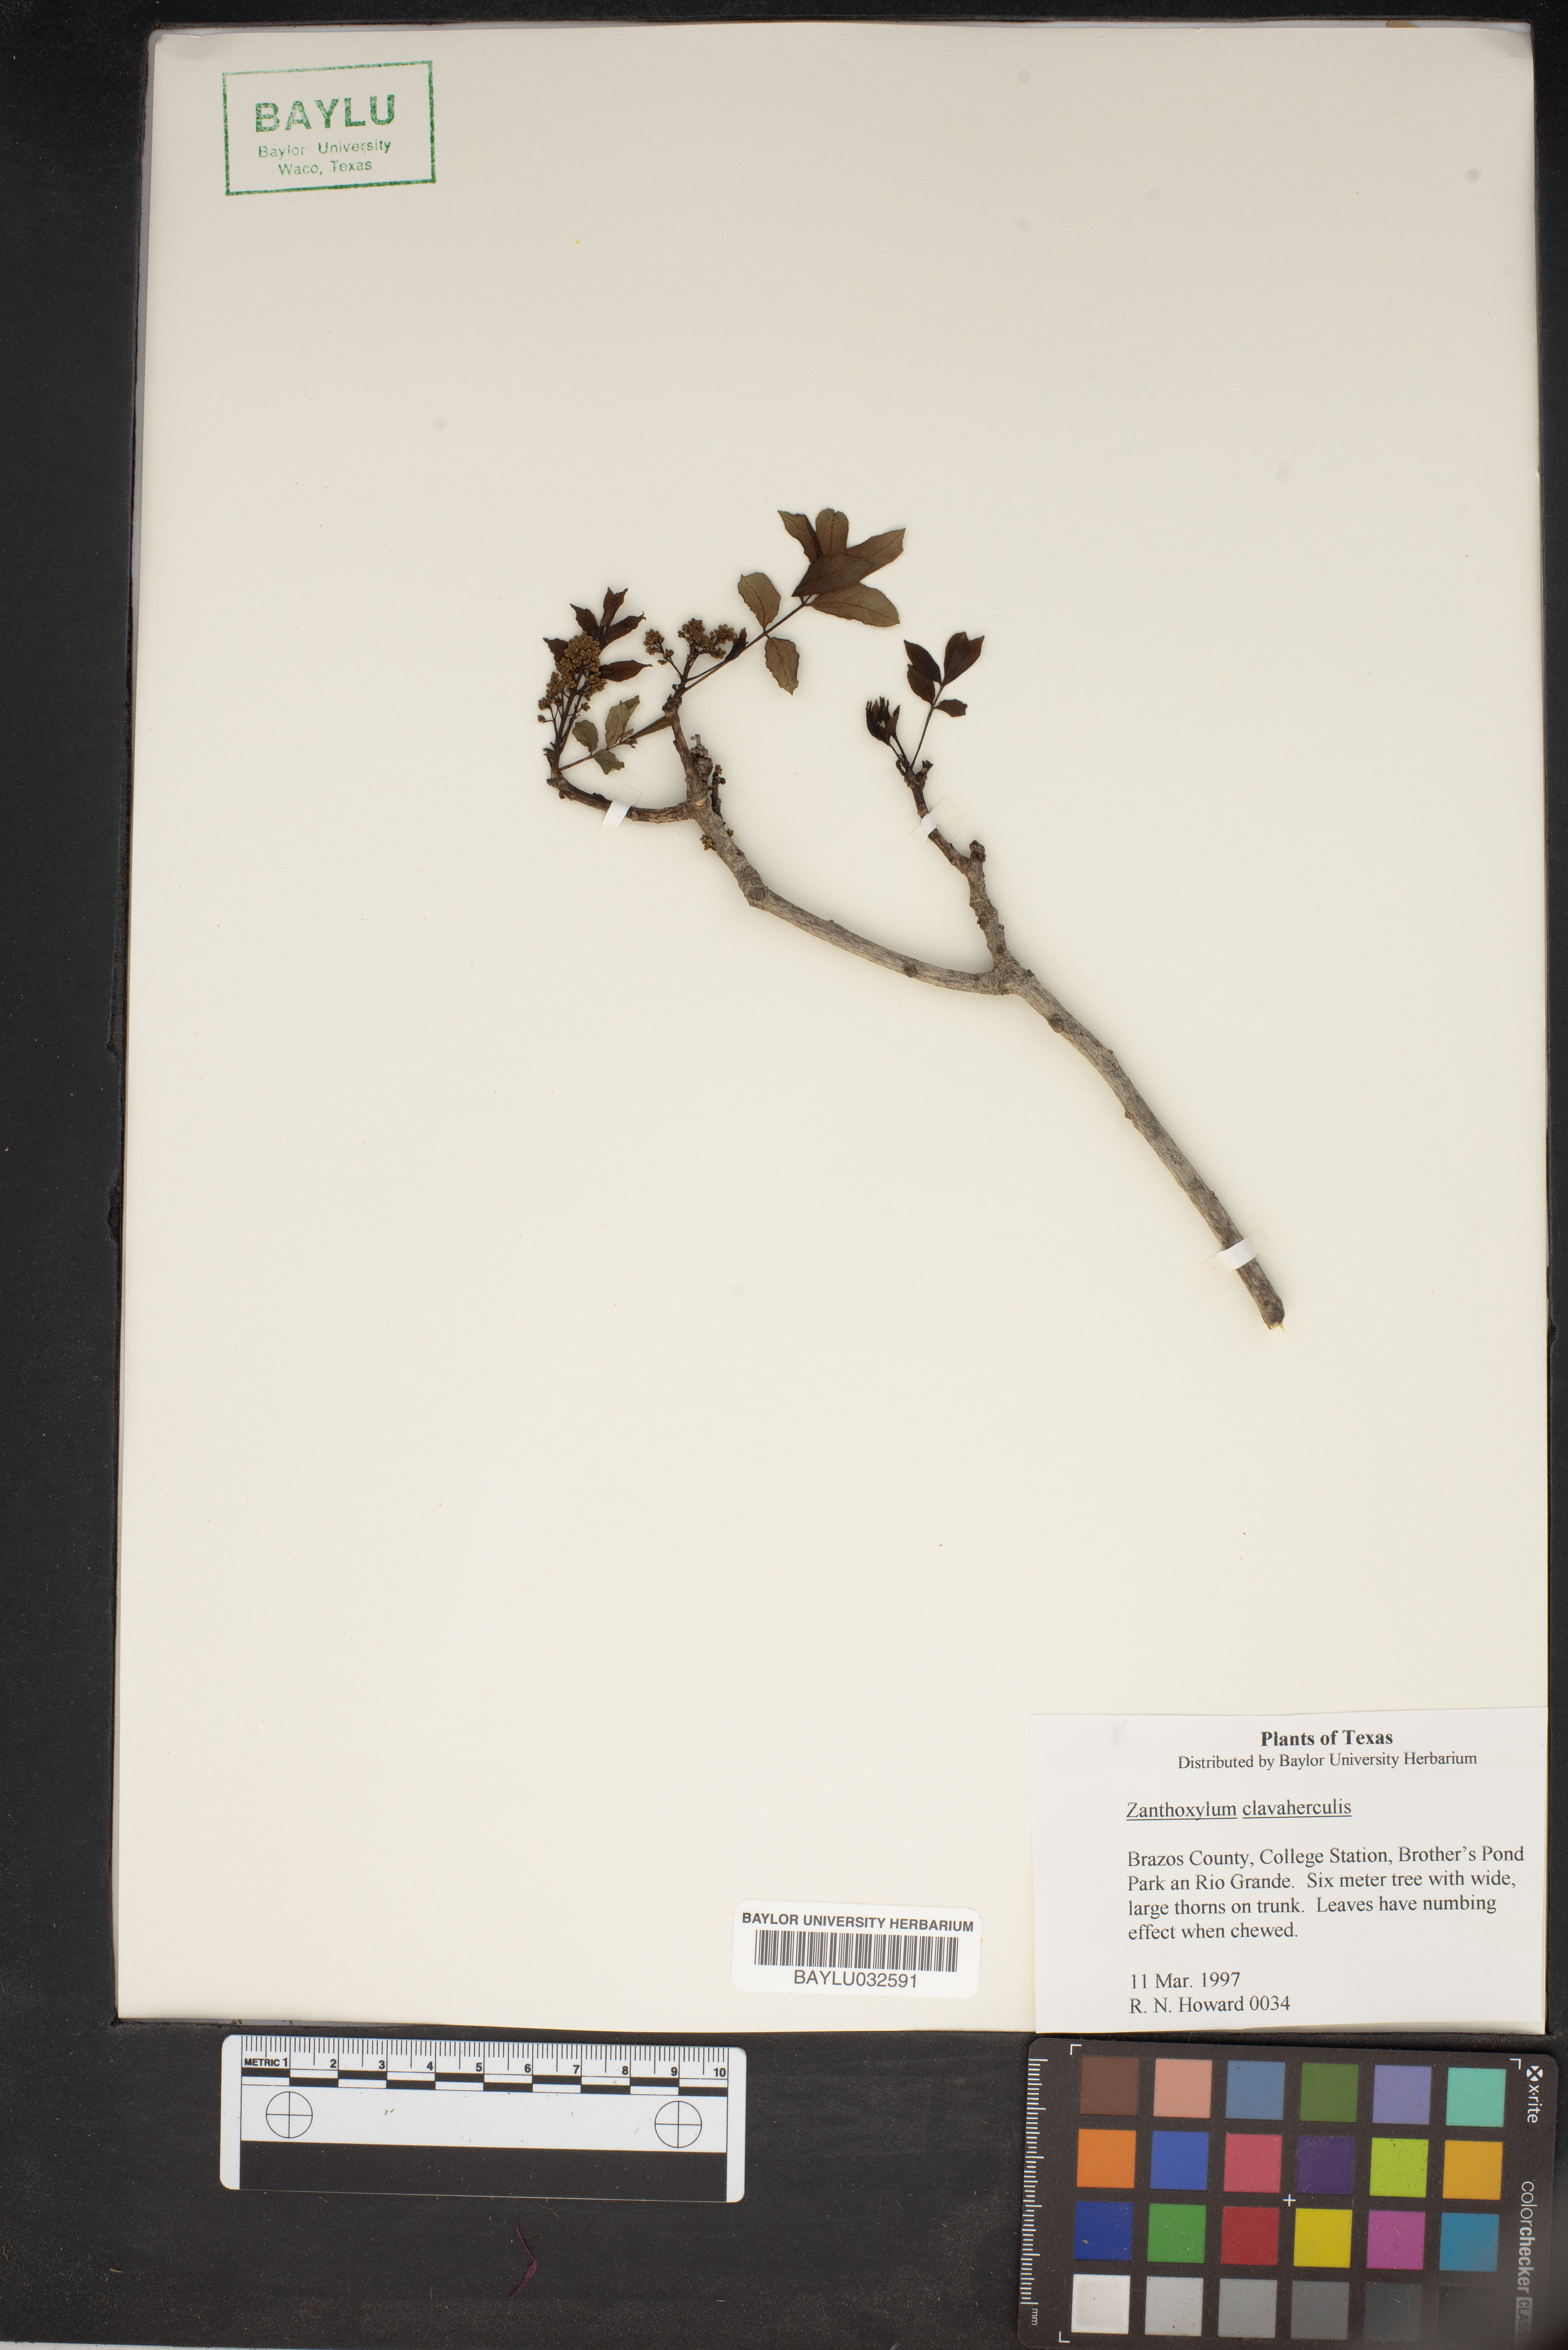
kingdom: Plantae
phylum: Tracheophyta
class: Magnoliopsida
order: Sapindales
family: Rutaceae
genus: Zanthoxylum
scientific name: Zanthoxylum avicennae
